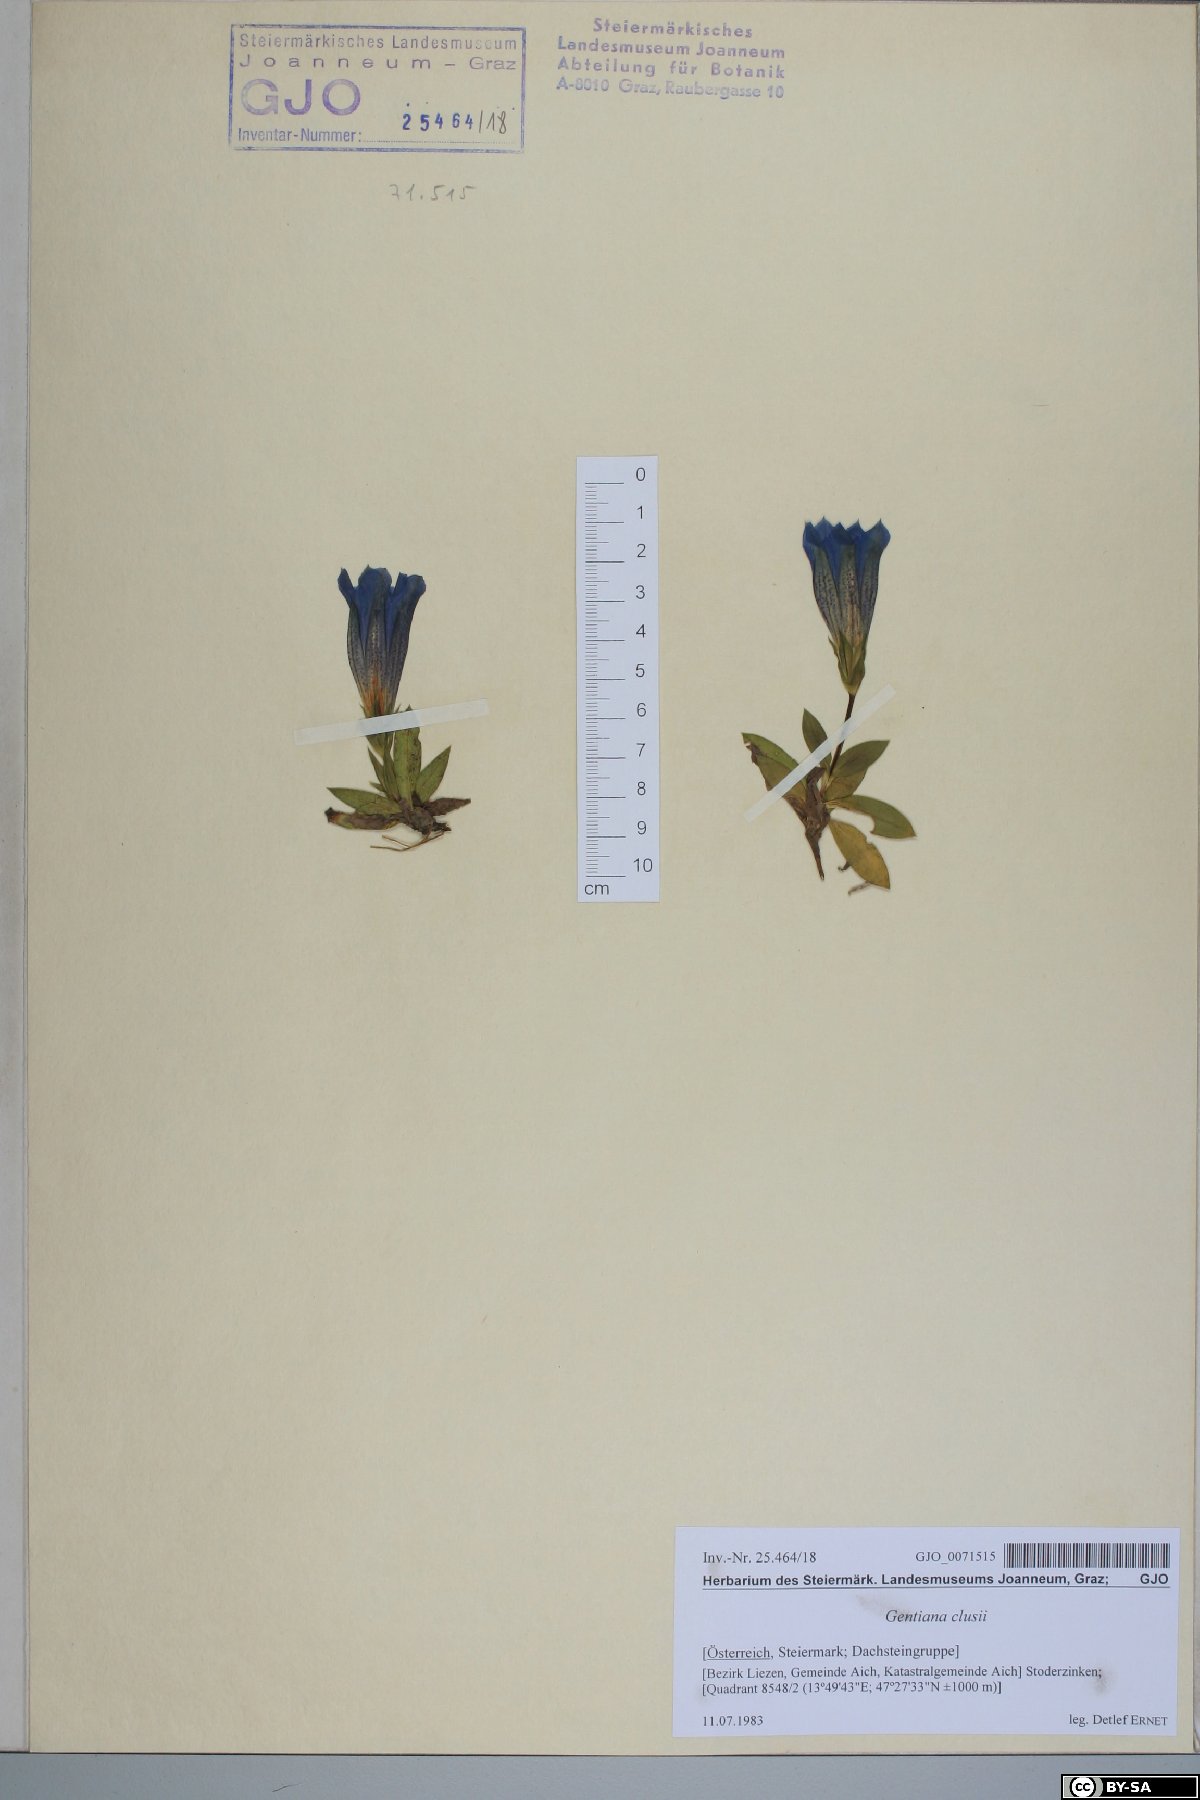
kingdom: Plantae
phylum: Tracheophyta
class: Magnoliopsida
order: Gentianales
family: Gentianaceae
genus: Gentiana
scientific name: Gentiana clusii
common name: Trumpet gentian
